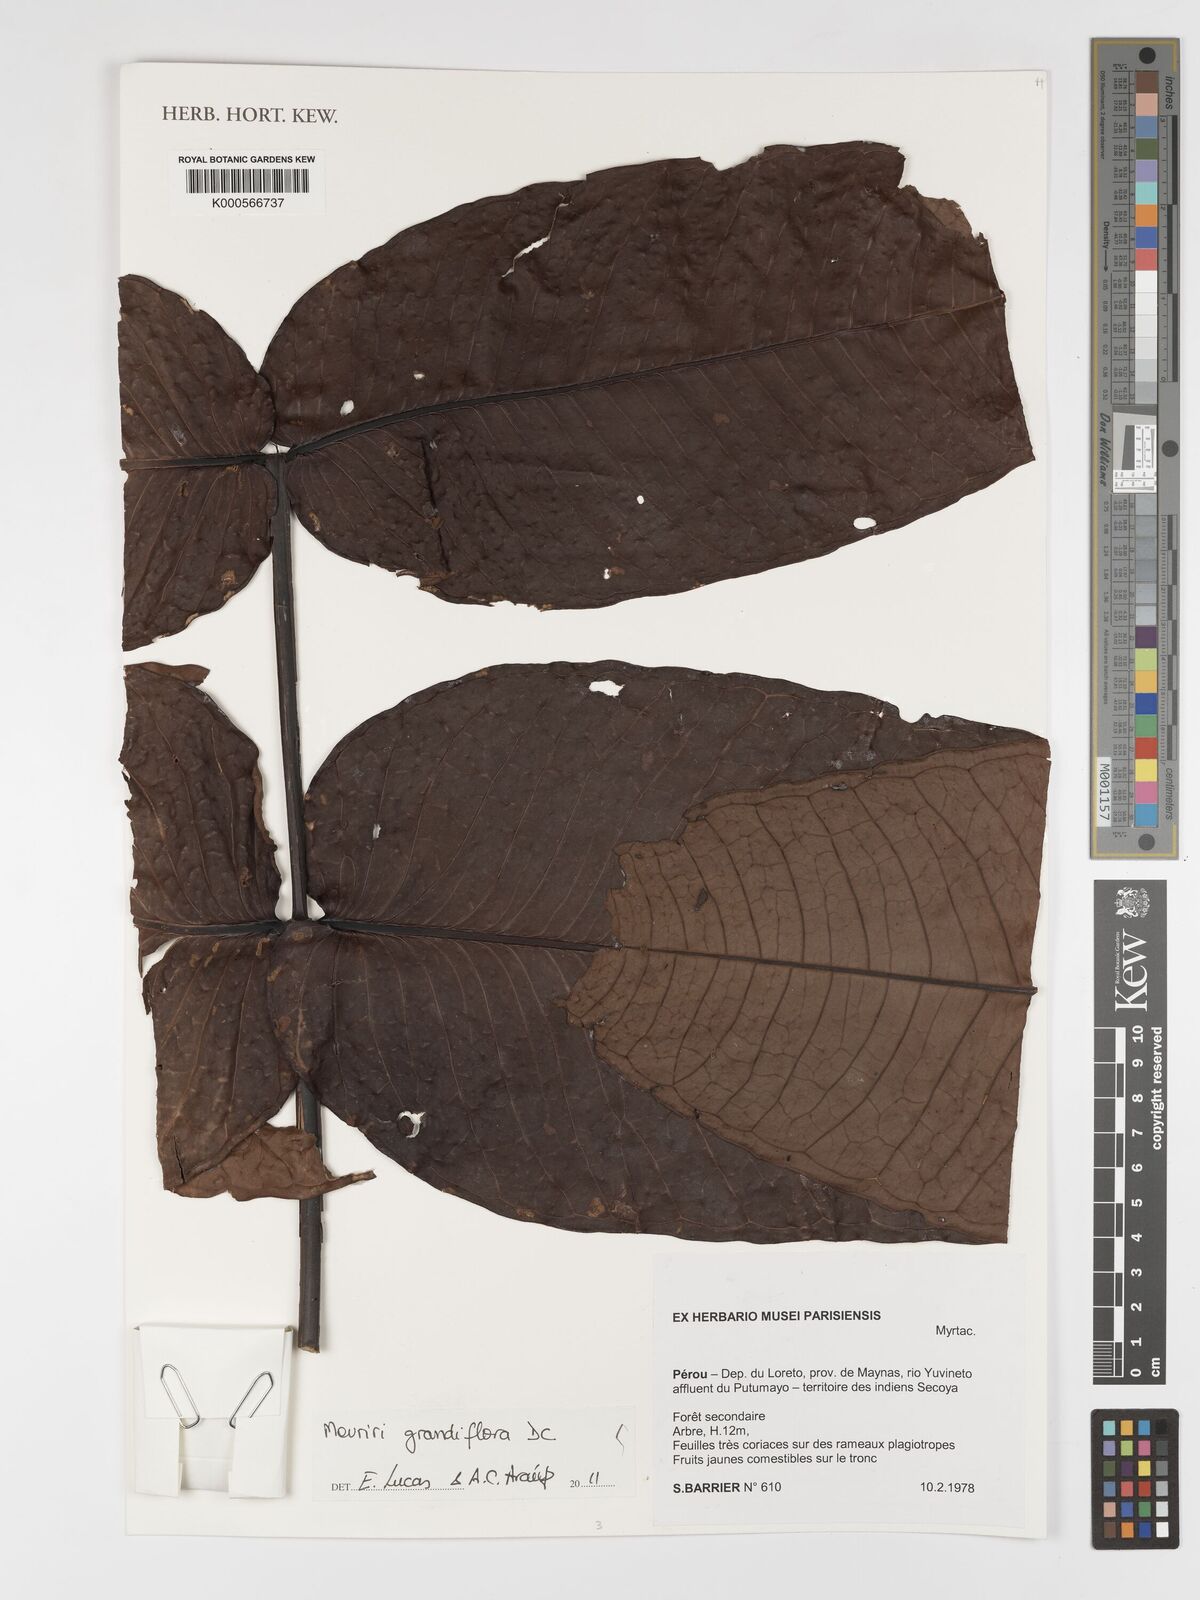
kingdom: Plantae
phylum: Tracheophyta
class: Magnoliopsida
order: Myrtales
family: Melastomataceae
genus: Mouriri
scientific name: Mouriri grandiflora
